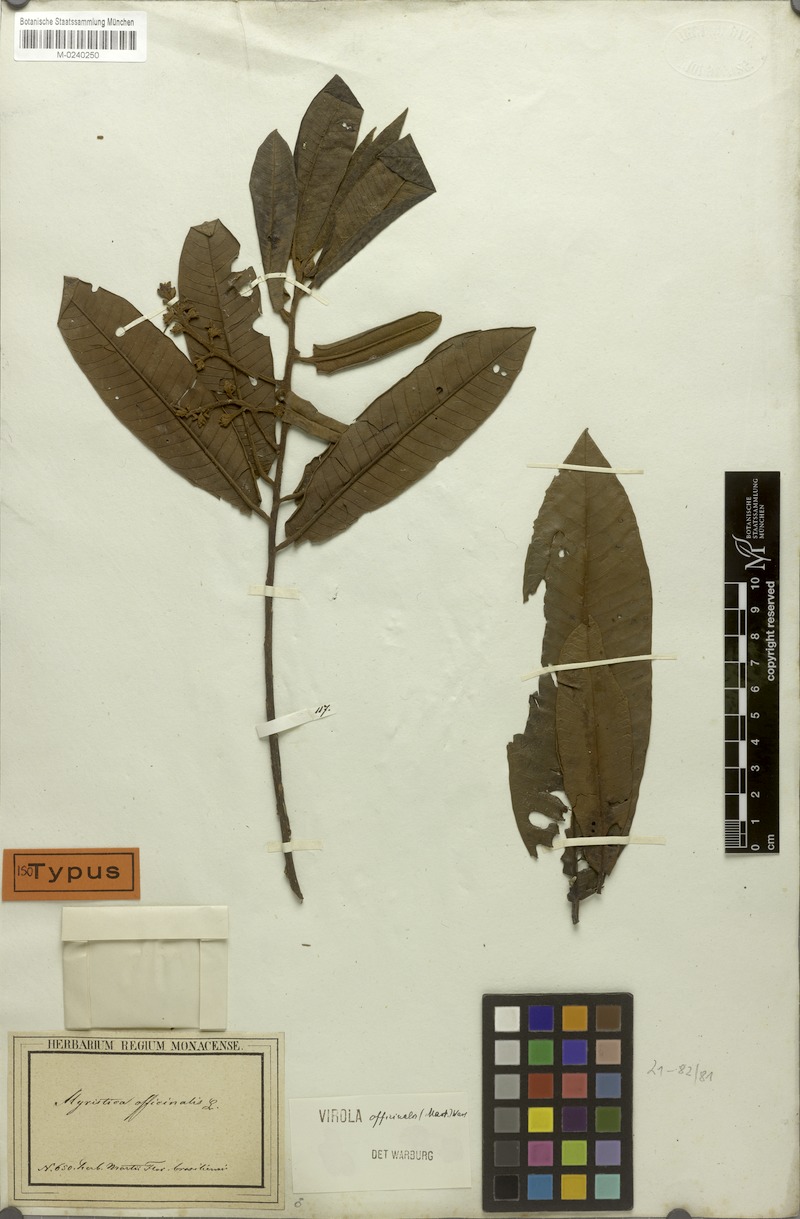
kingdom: Plantae
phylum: Tracheophyta
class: Magnoliopsida
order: Magnoliales
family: Myristicaceae
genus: Virola
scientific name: Virola officinalis
